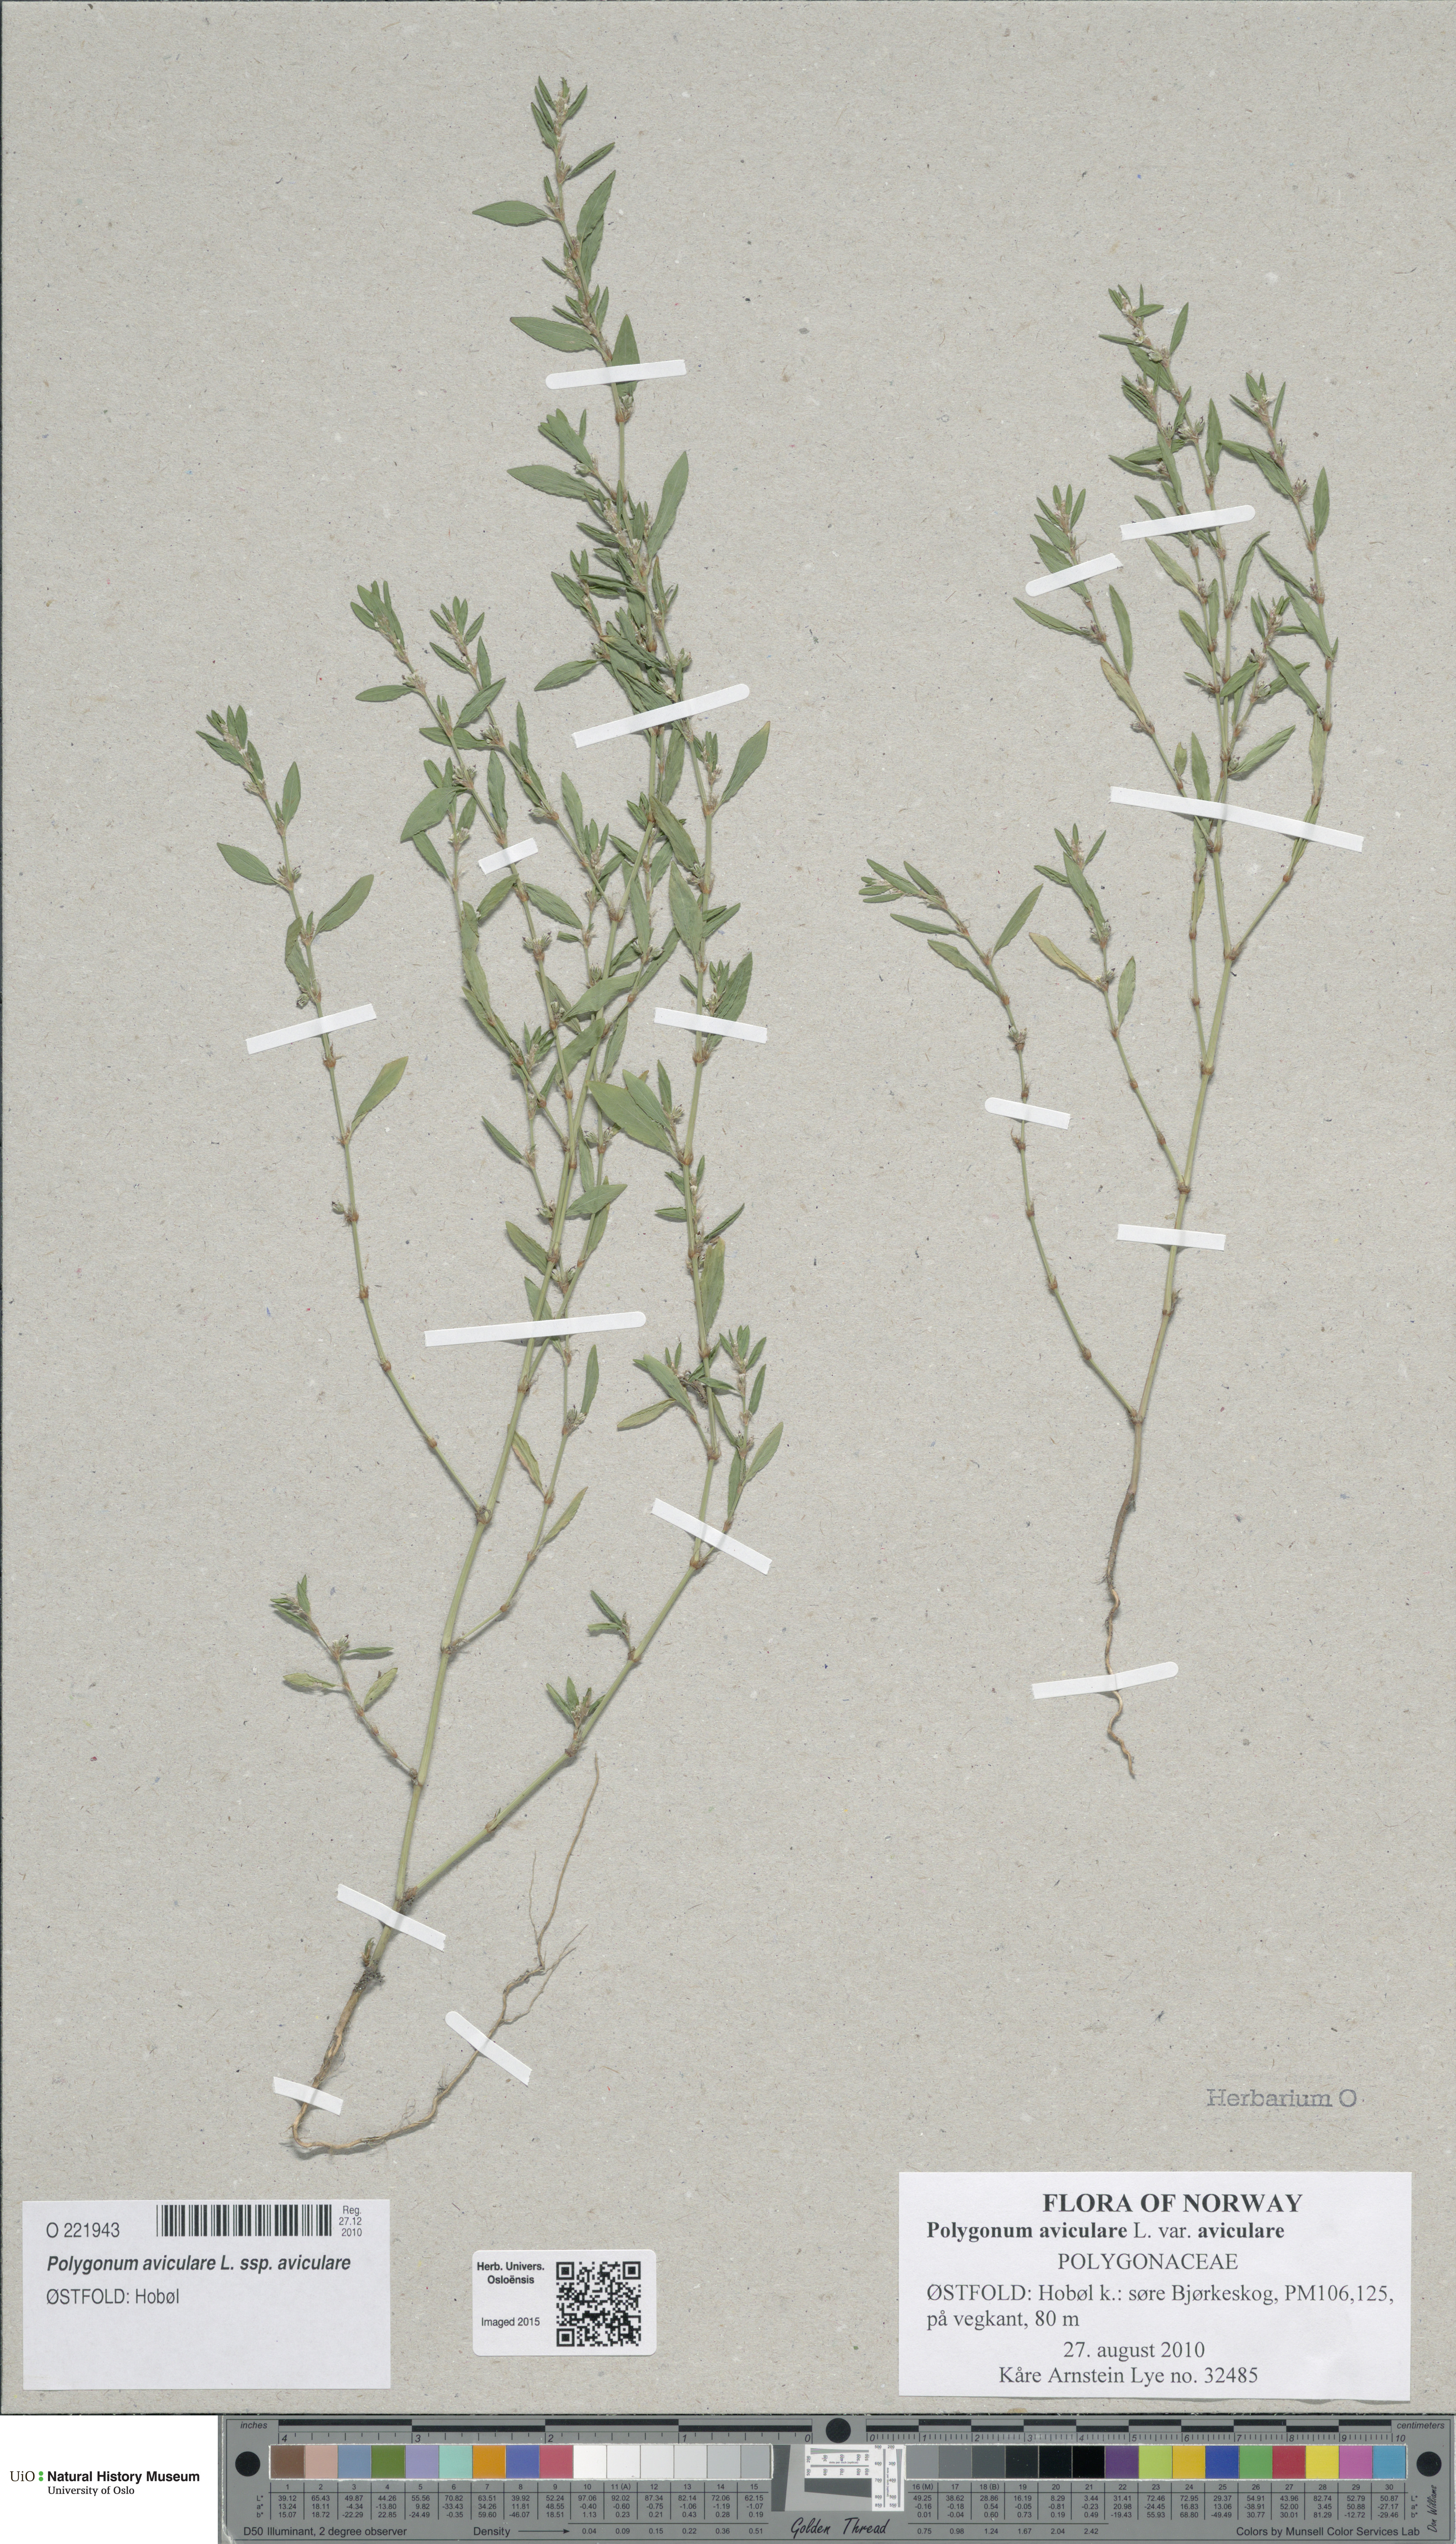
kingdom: Plantae
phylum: Tracheophyta
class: Magnoliopsida
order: Caryophyllales
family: Polygonaceae
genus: Polygonum
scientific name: Polygonum aviculare
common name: Prostrate knotweed
